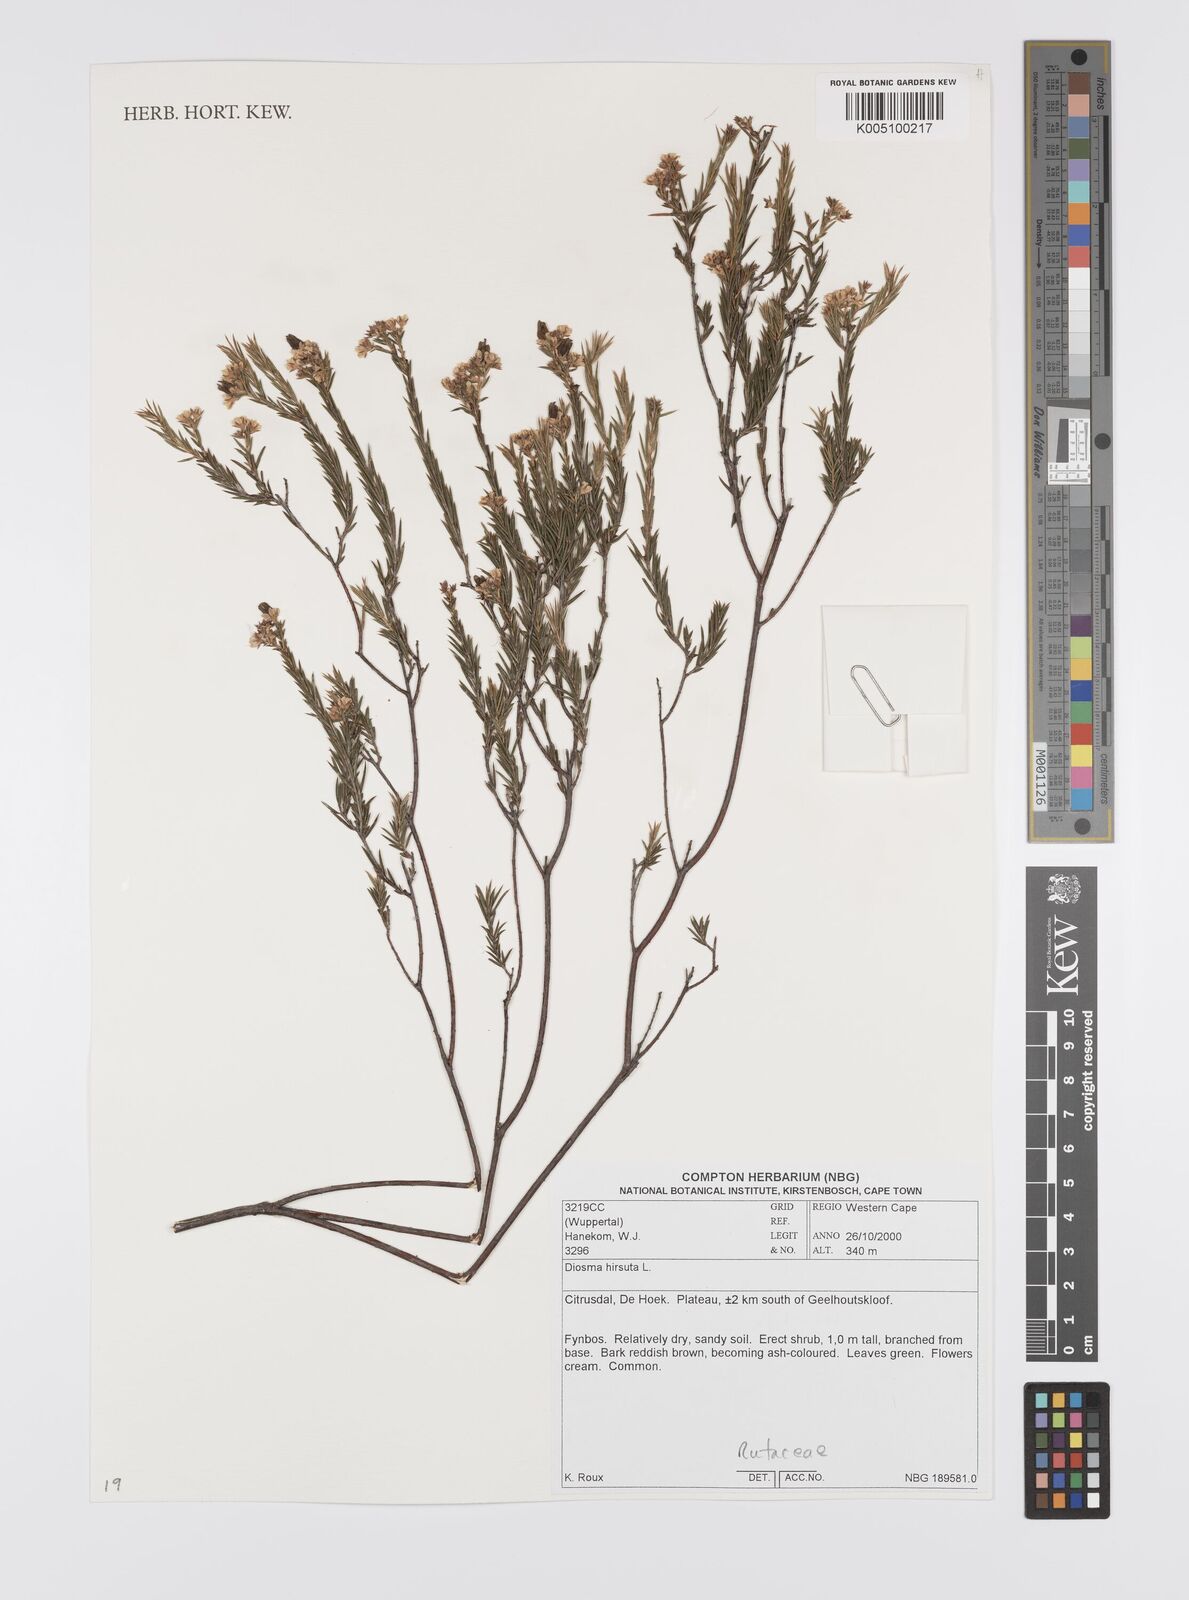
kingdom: Plantae
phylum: Tracheophyta
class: Magnoliopsida
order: Sapindales
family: Rutaceae
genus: Diosma
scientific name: Diosma hirsuta
